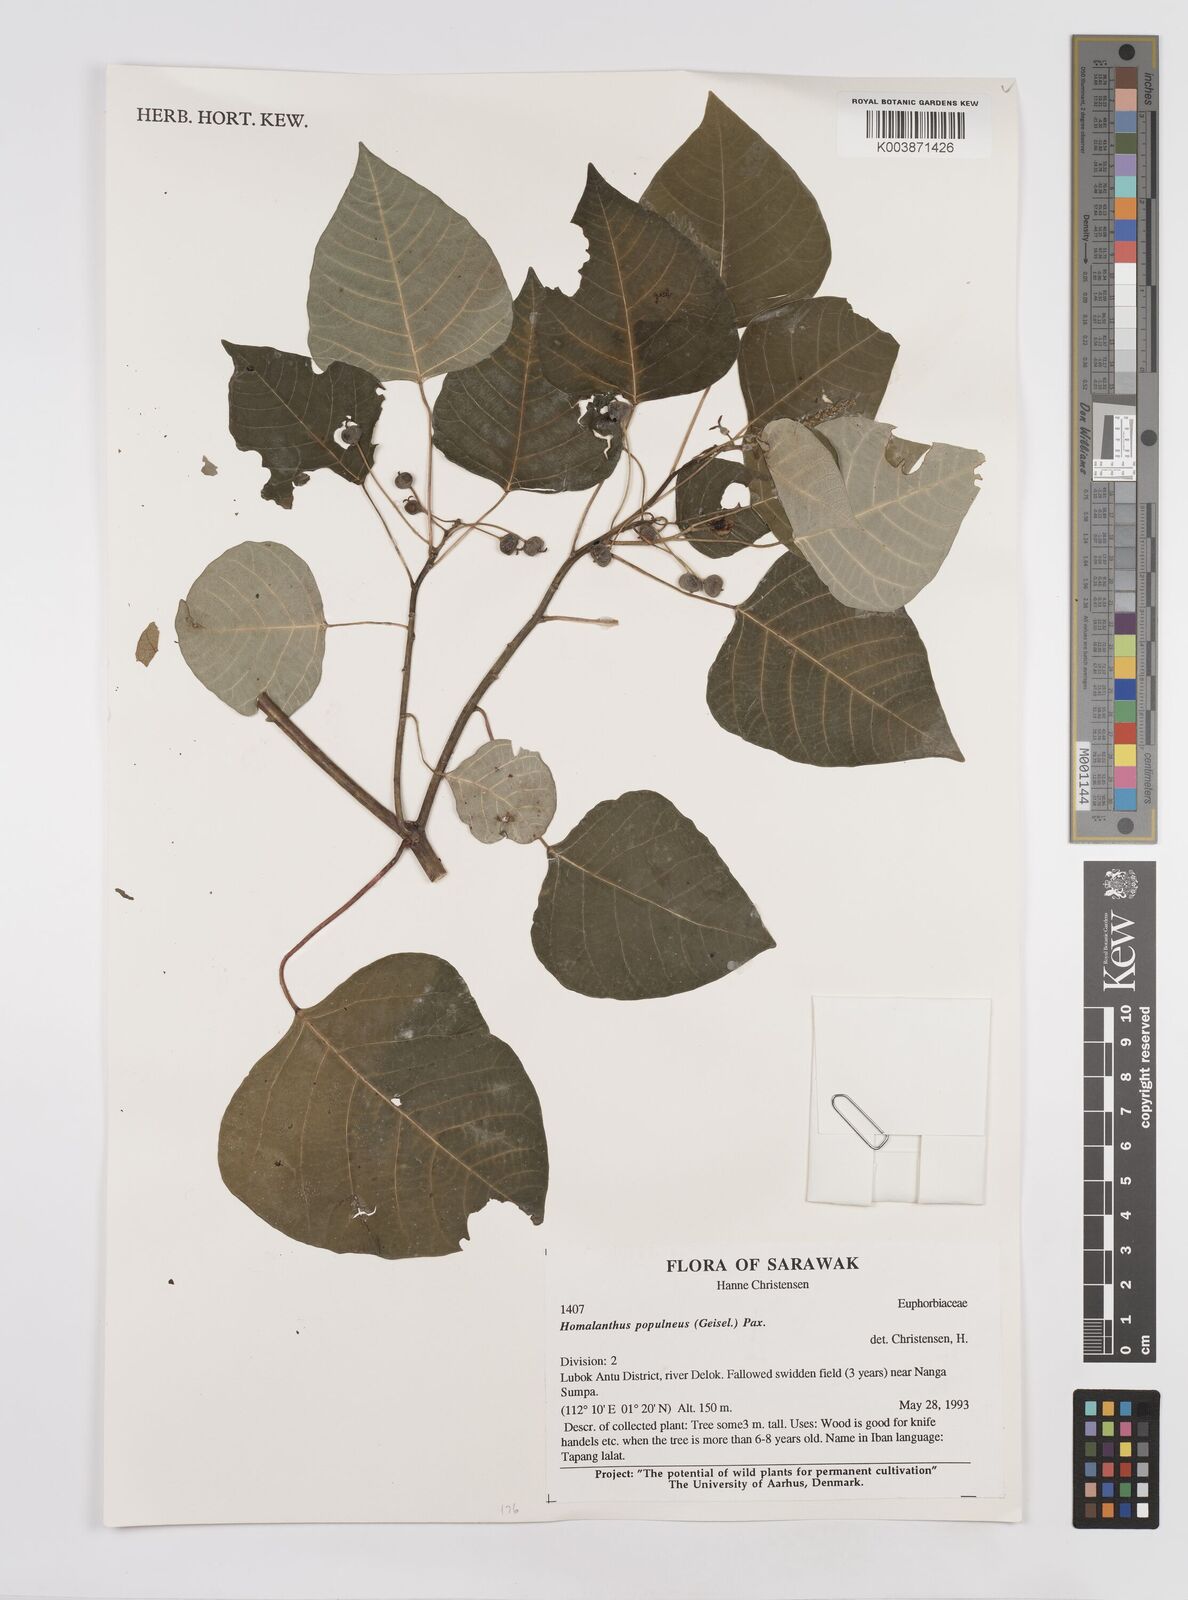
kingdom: Plantae
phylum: Tracheophyta
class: Magnoliopsida
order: Malpighiales
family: Euphorbiaceae
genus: Homalanthus
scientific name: Homalanthus populneus
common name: Spurge
